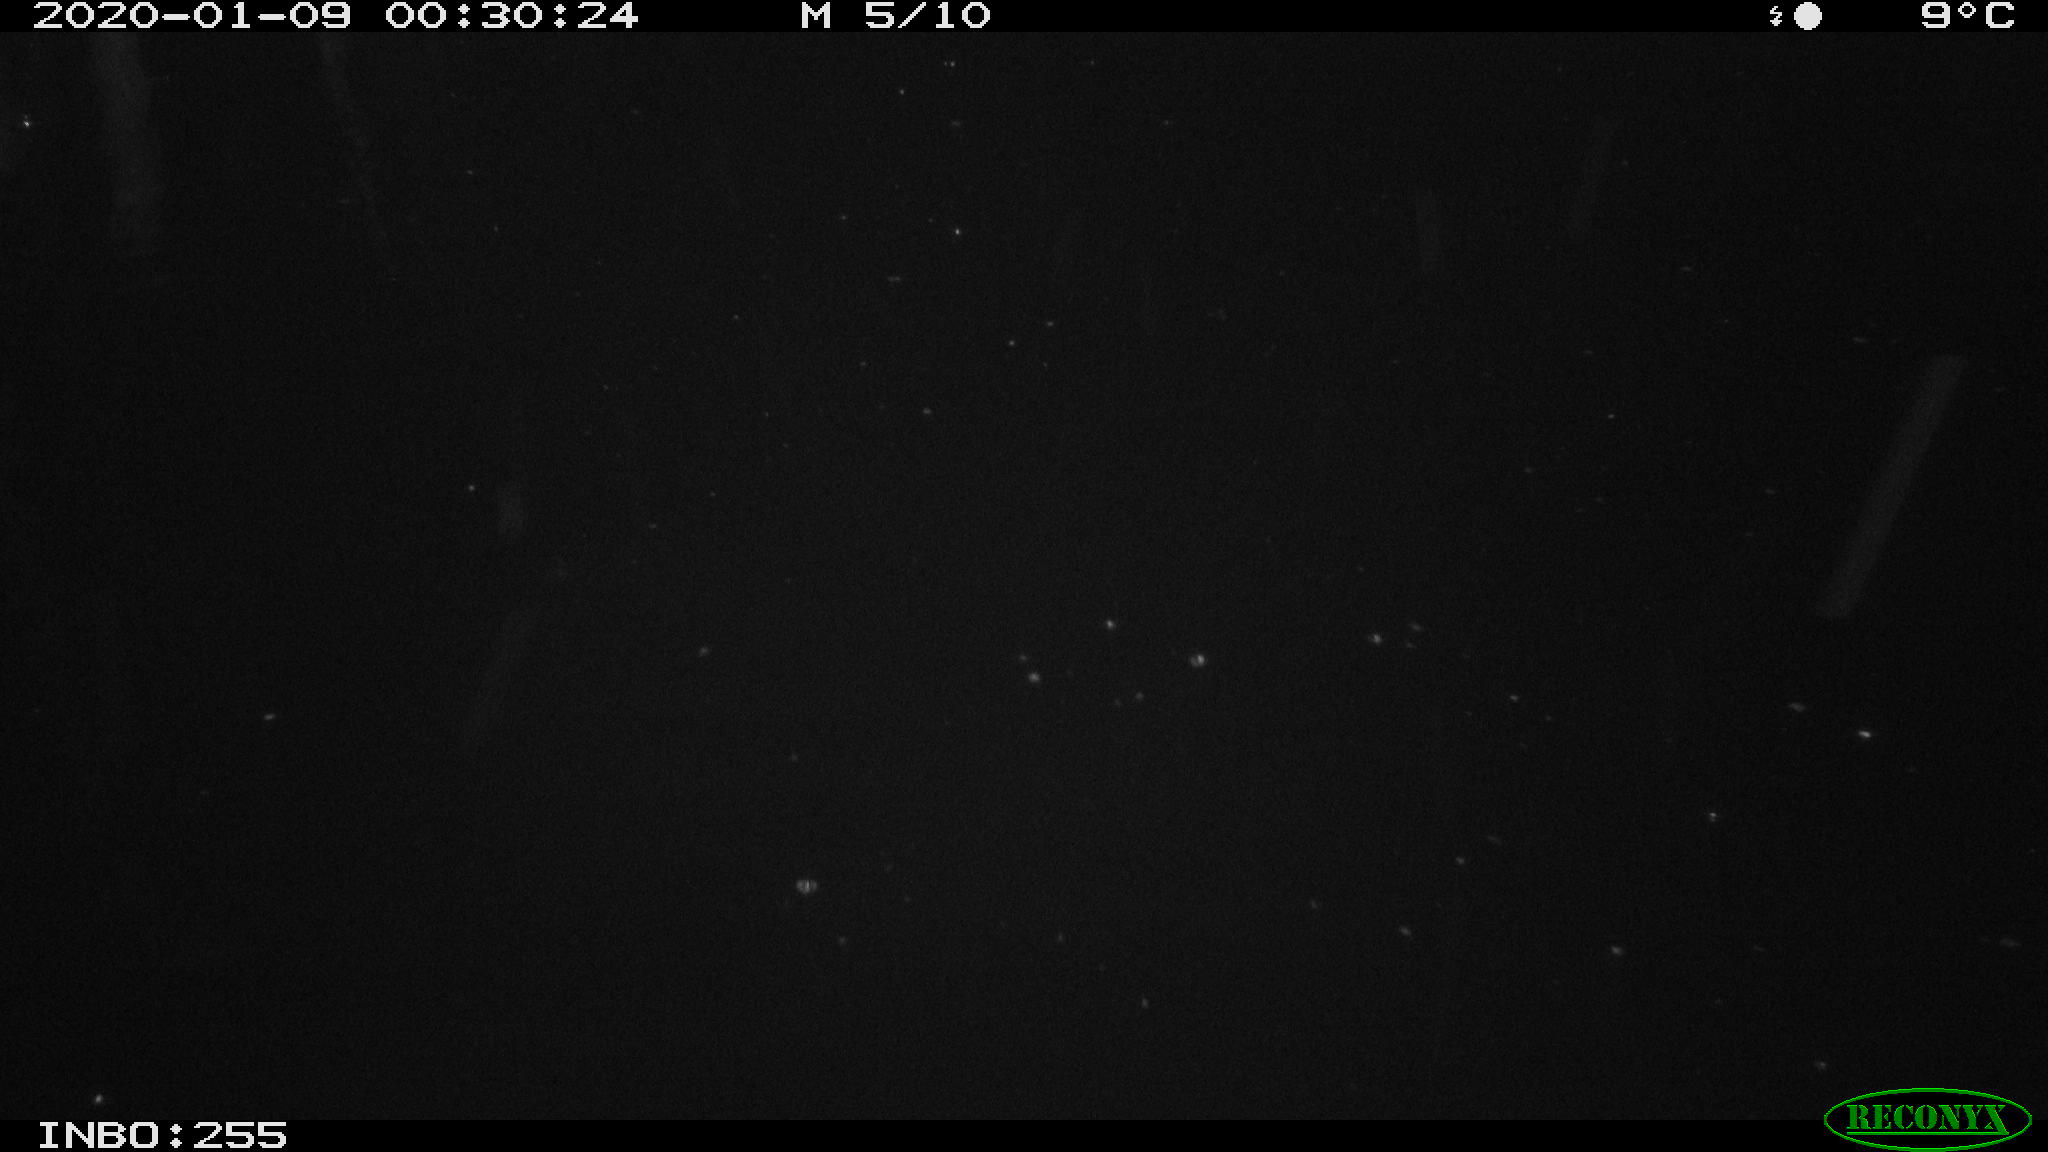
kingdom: Animalia
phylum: Chordata
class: Aves
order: Anseriformes
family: Anatidae
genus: Anas
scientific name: Anas platyrhynchos
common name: Mallard
